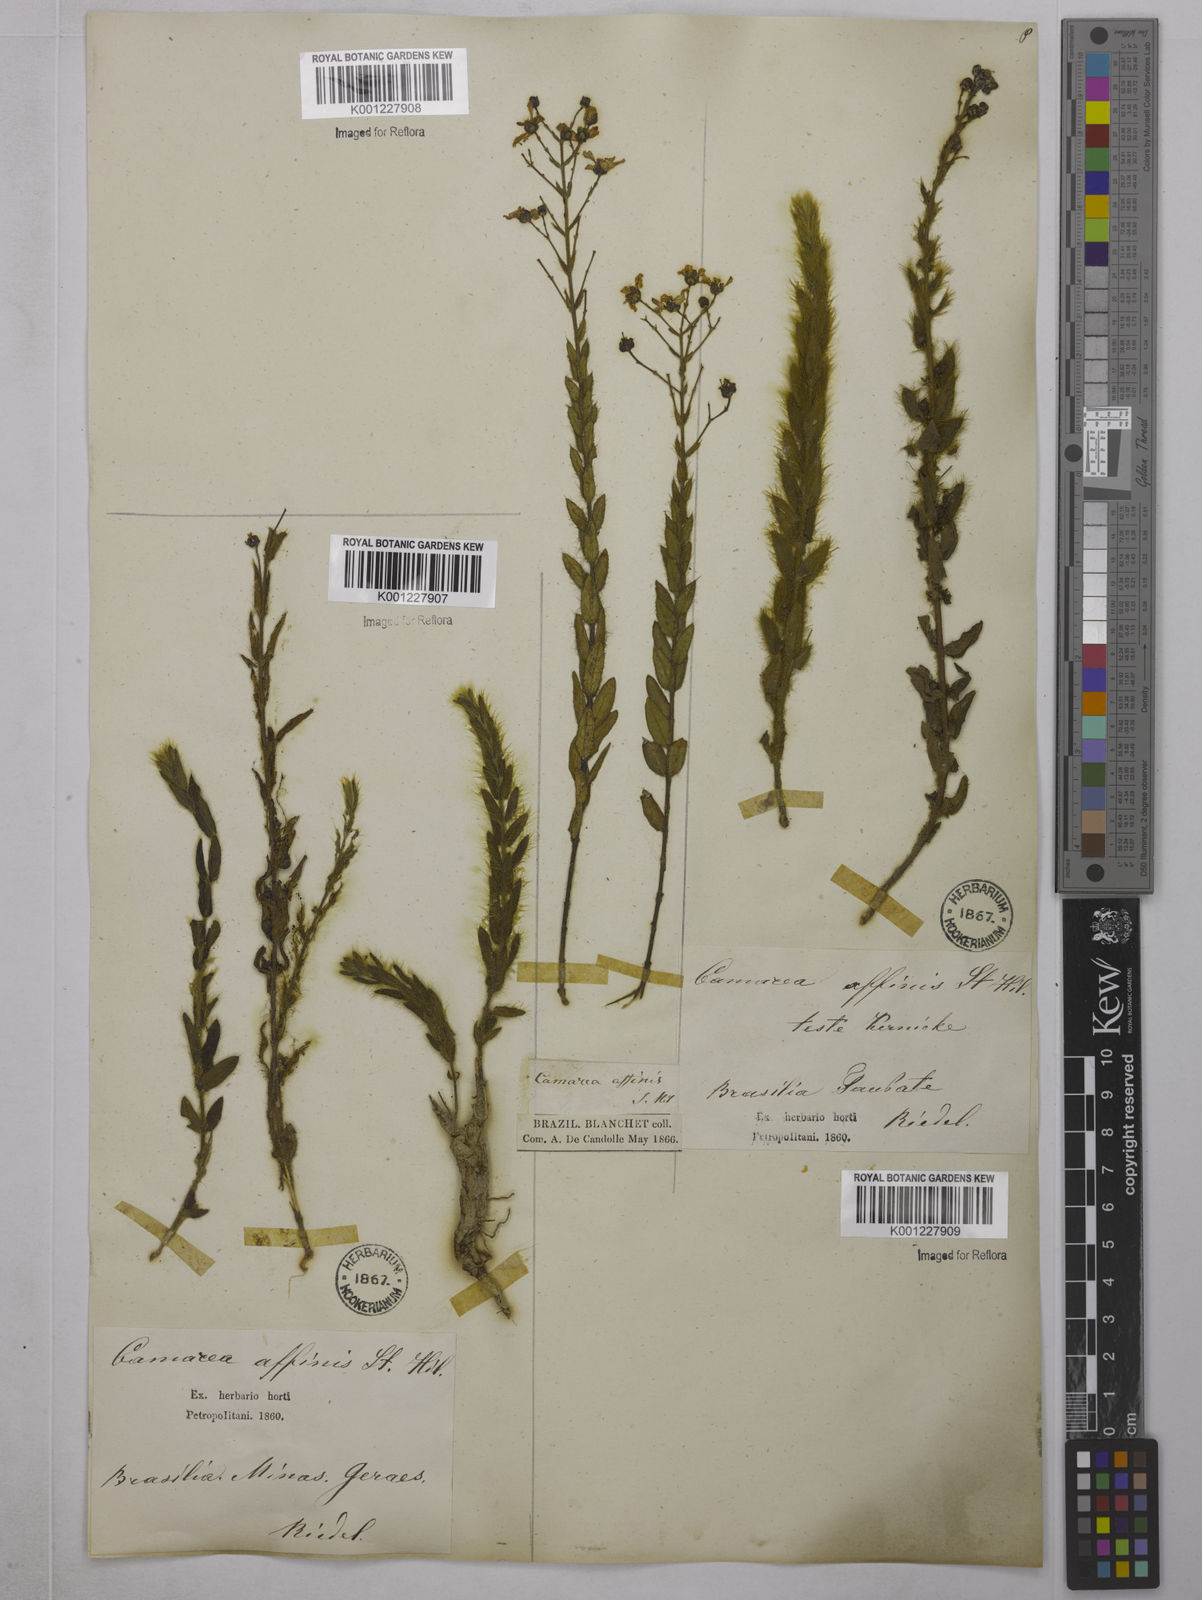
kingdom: Plantae
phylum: Tracheophyta
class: Magnoliopsida
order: Malpighiales
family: Malpighiaceae
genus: Camarea
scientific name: Camarea affinis
